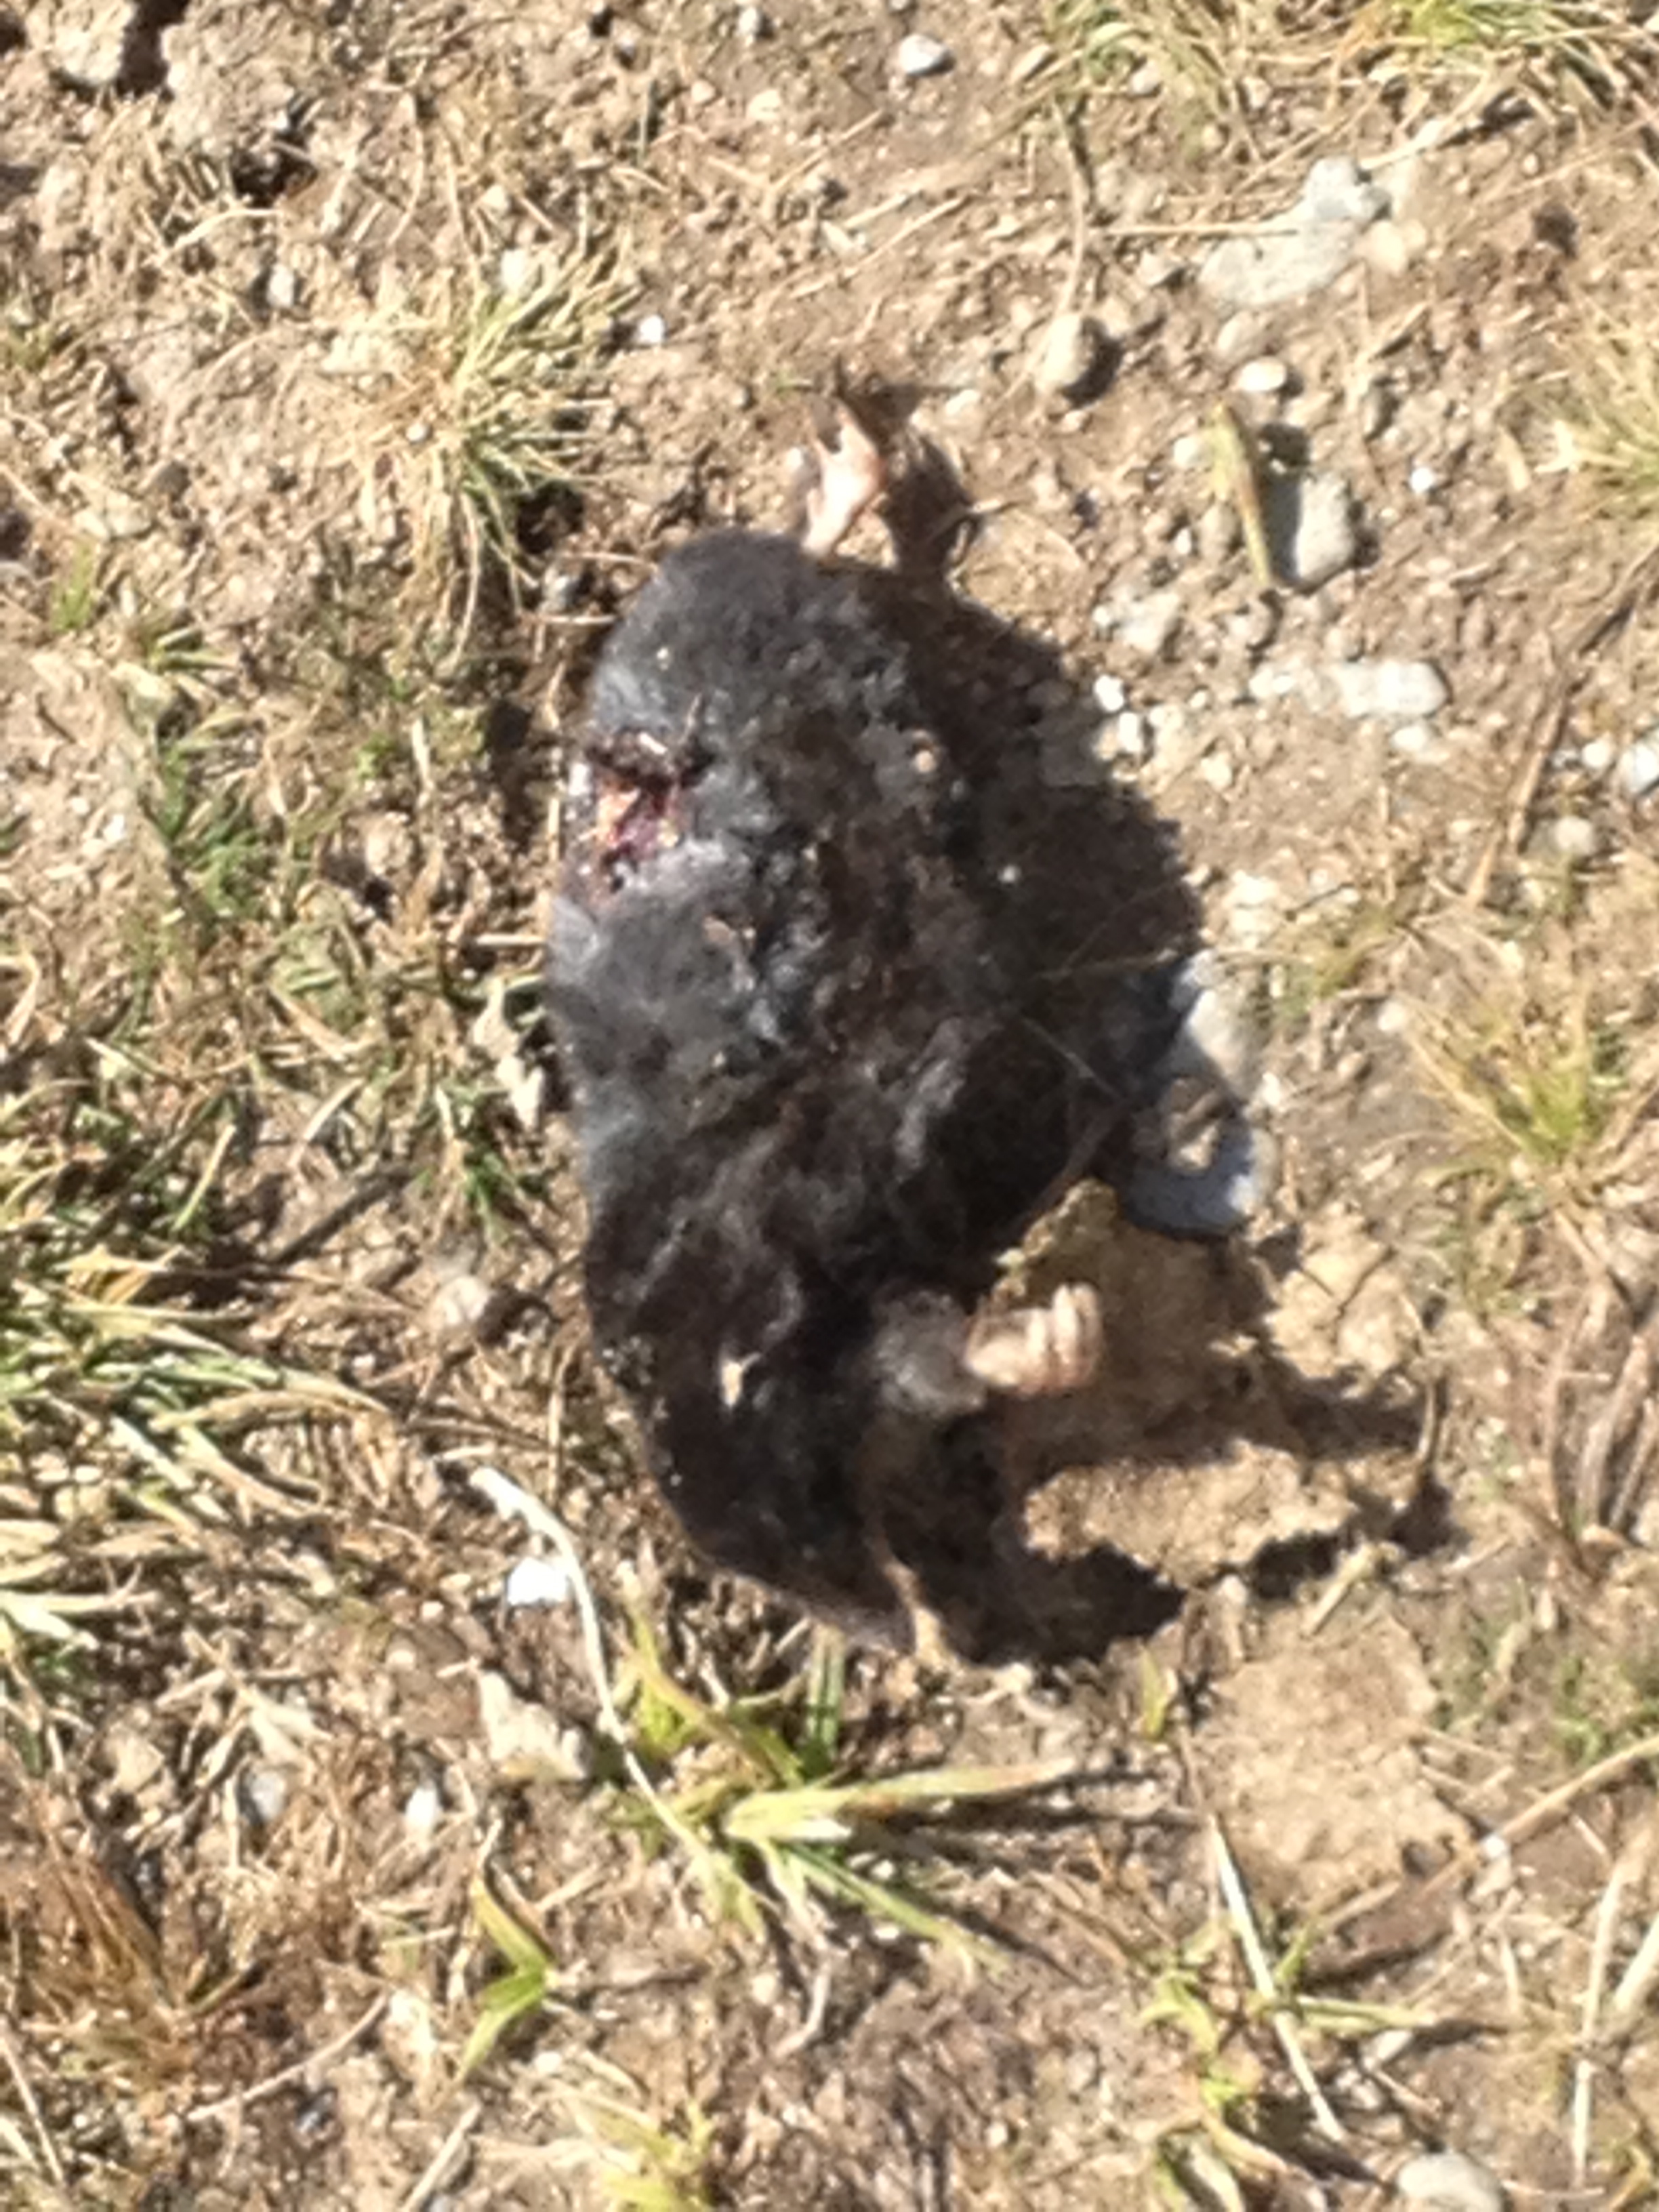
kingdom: Animalia
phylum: Chordata
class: Mammalia
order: Soricomorpha
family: Talpidae
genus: Talpa
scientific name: Talpa europaea
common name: European mole
